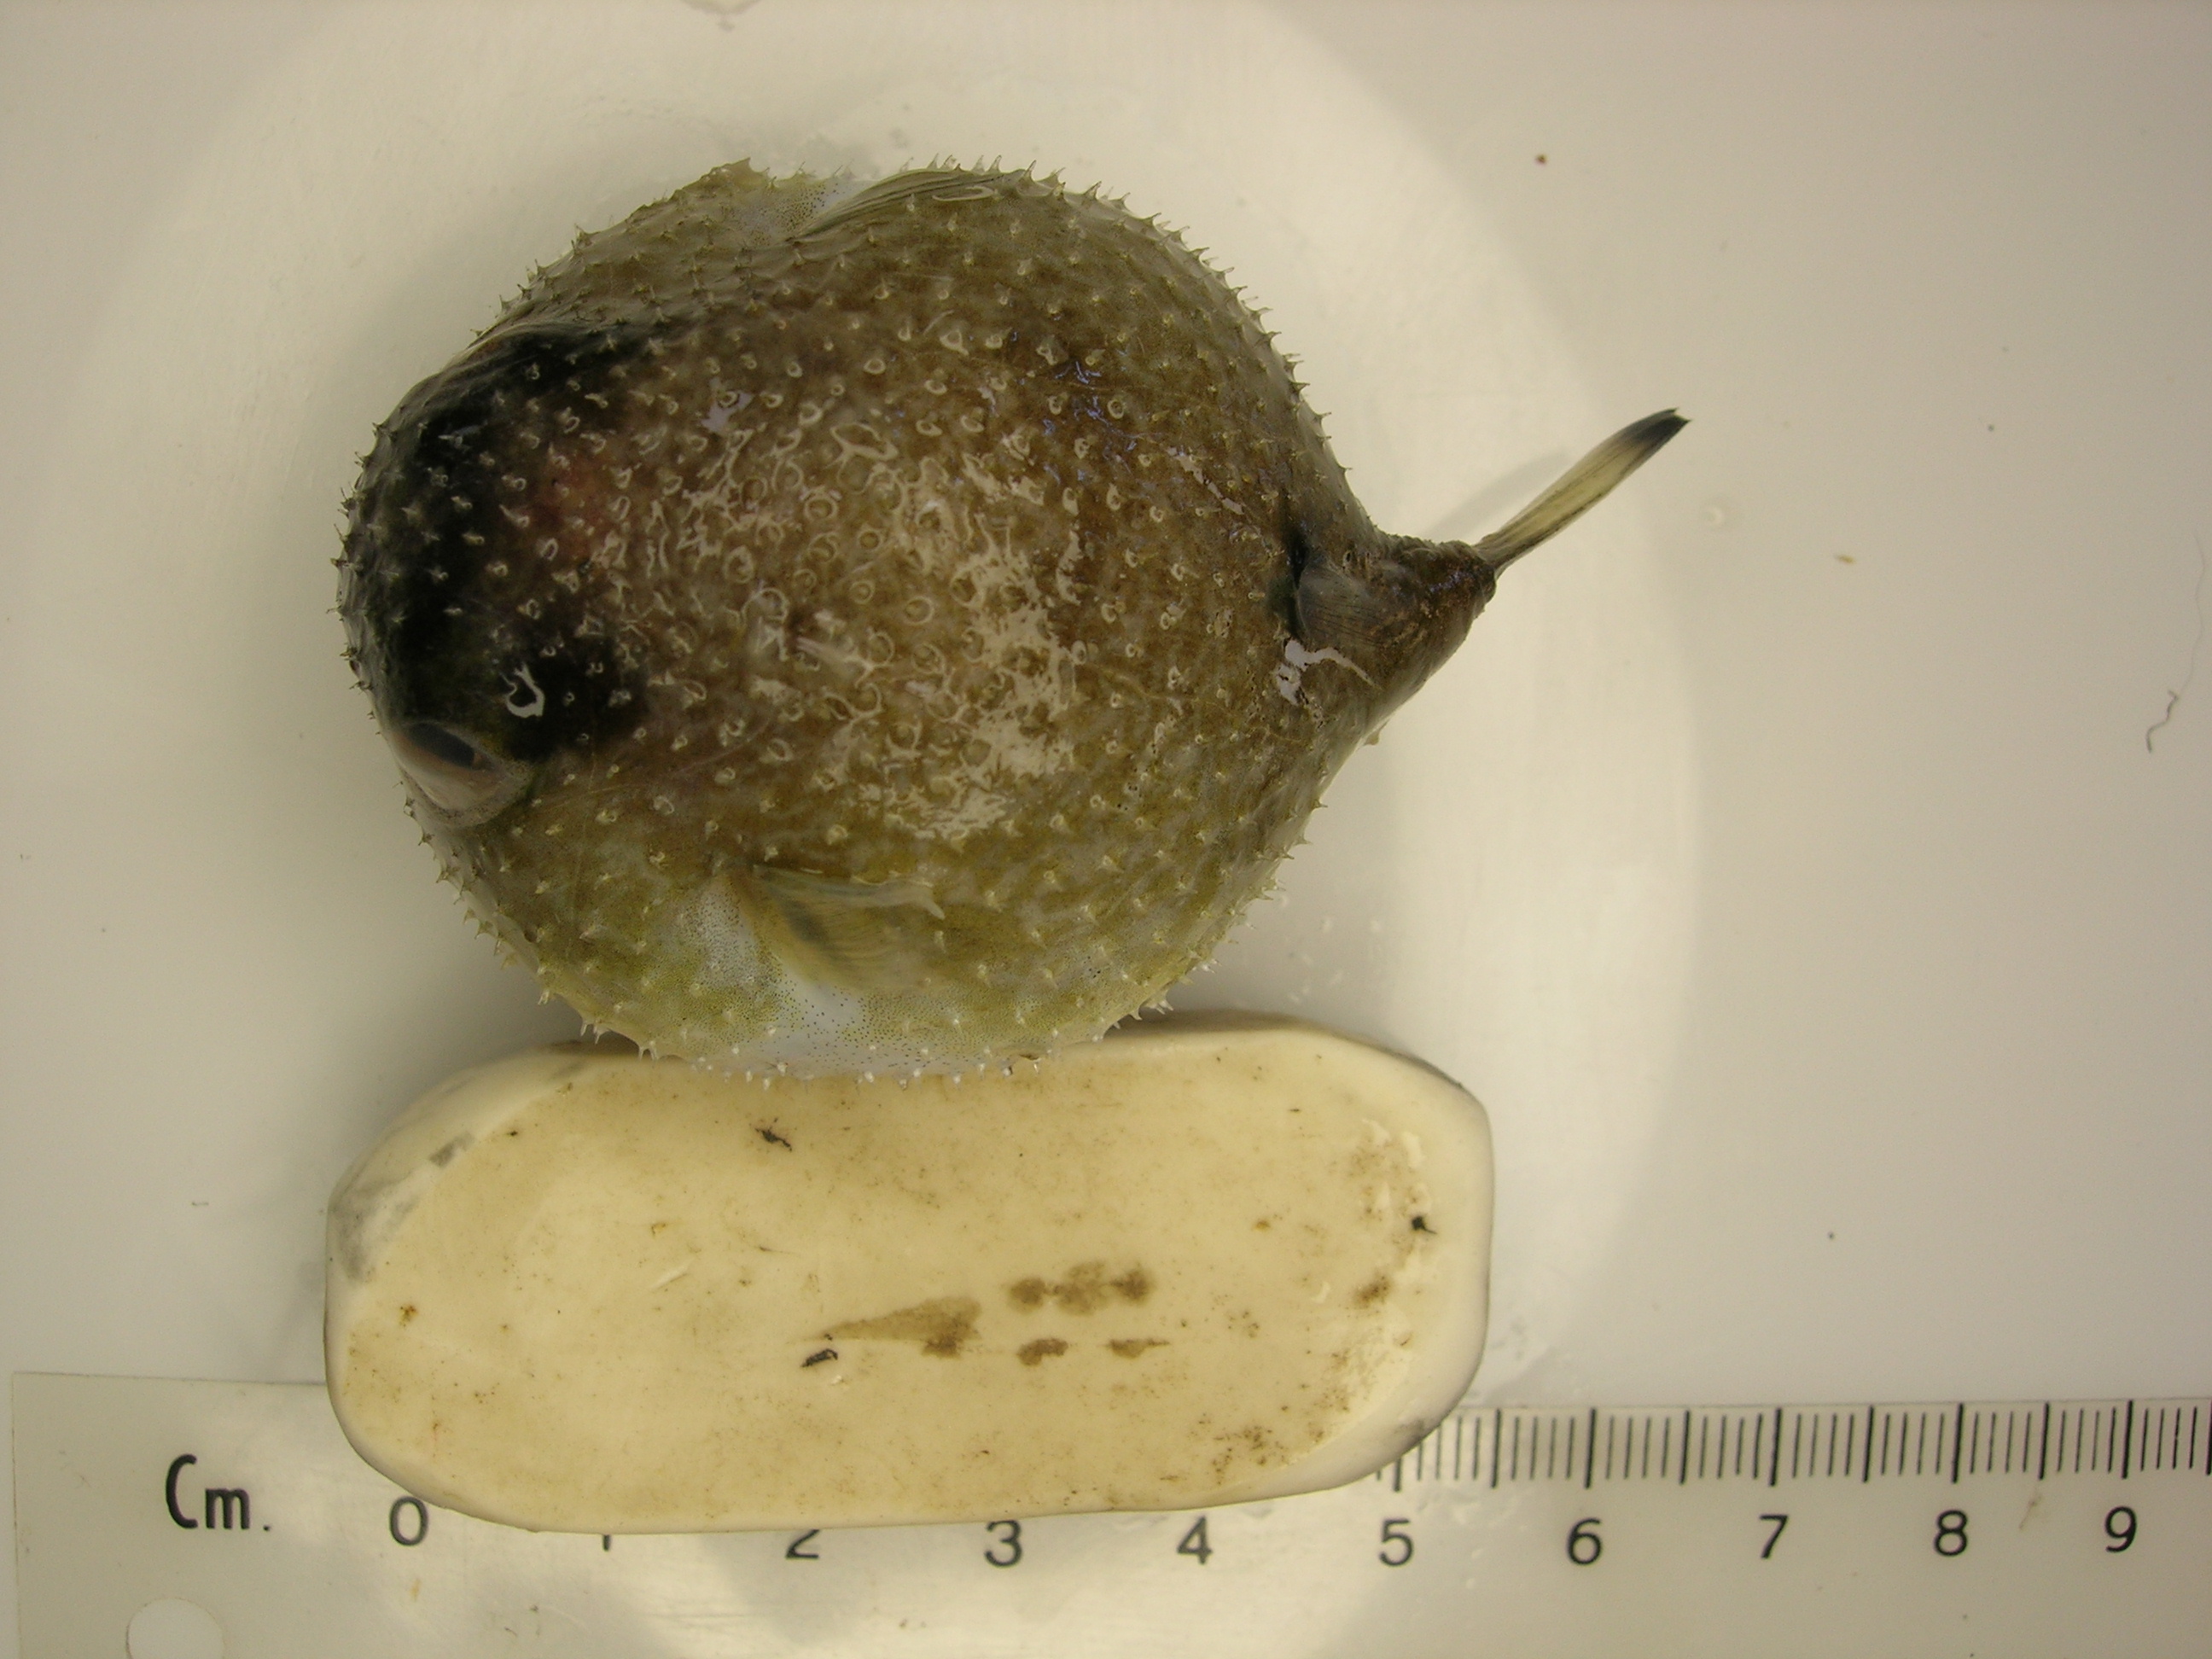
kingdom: Animalia
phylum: Chordata
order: Tetraodontiformes
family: Tetraodontidae
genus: Arothron
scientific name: Arothron immaculatus
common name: Blackedged blaasop
